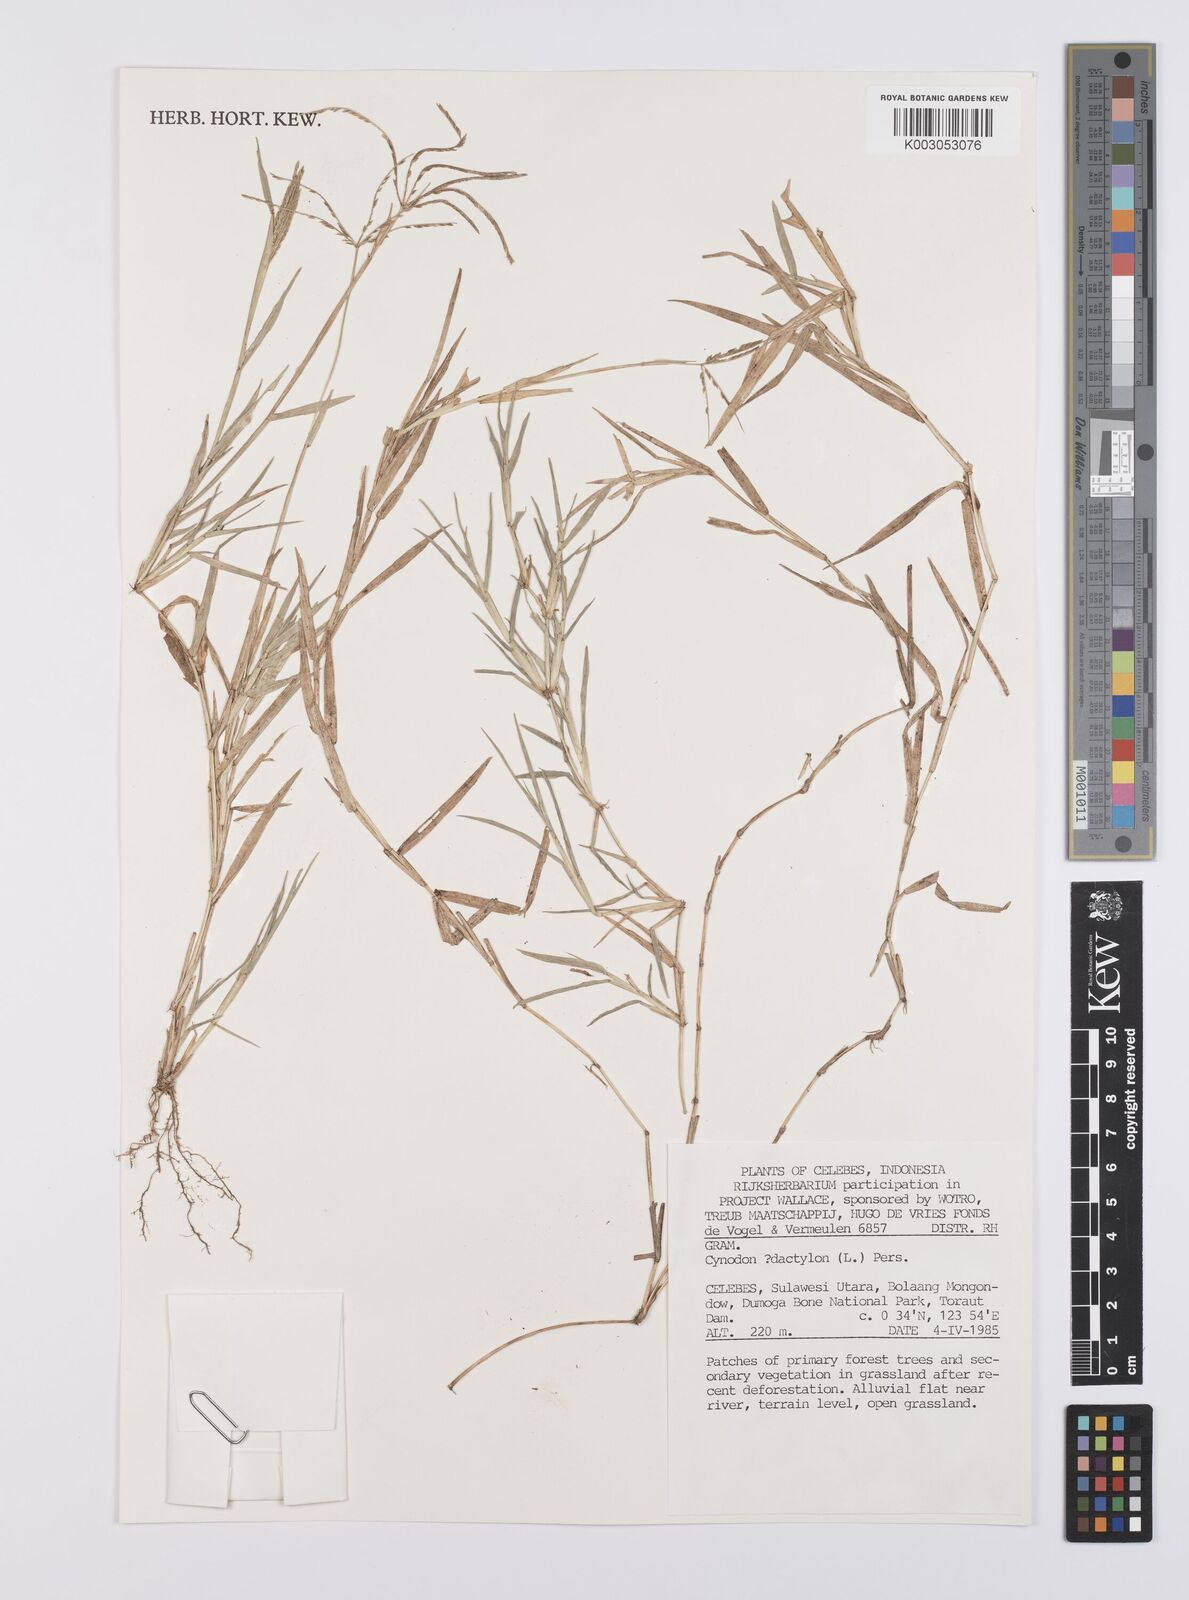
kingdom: Plantae
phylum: Tracheophyta
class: Liliopsida
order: Poales
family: Poaceae
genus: Cynodon
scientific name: Cynodon dactylon
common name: Bermuda grass
